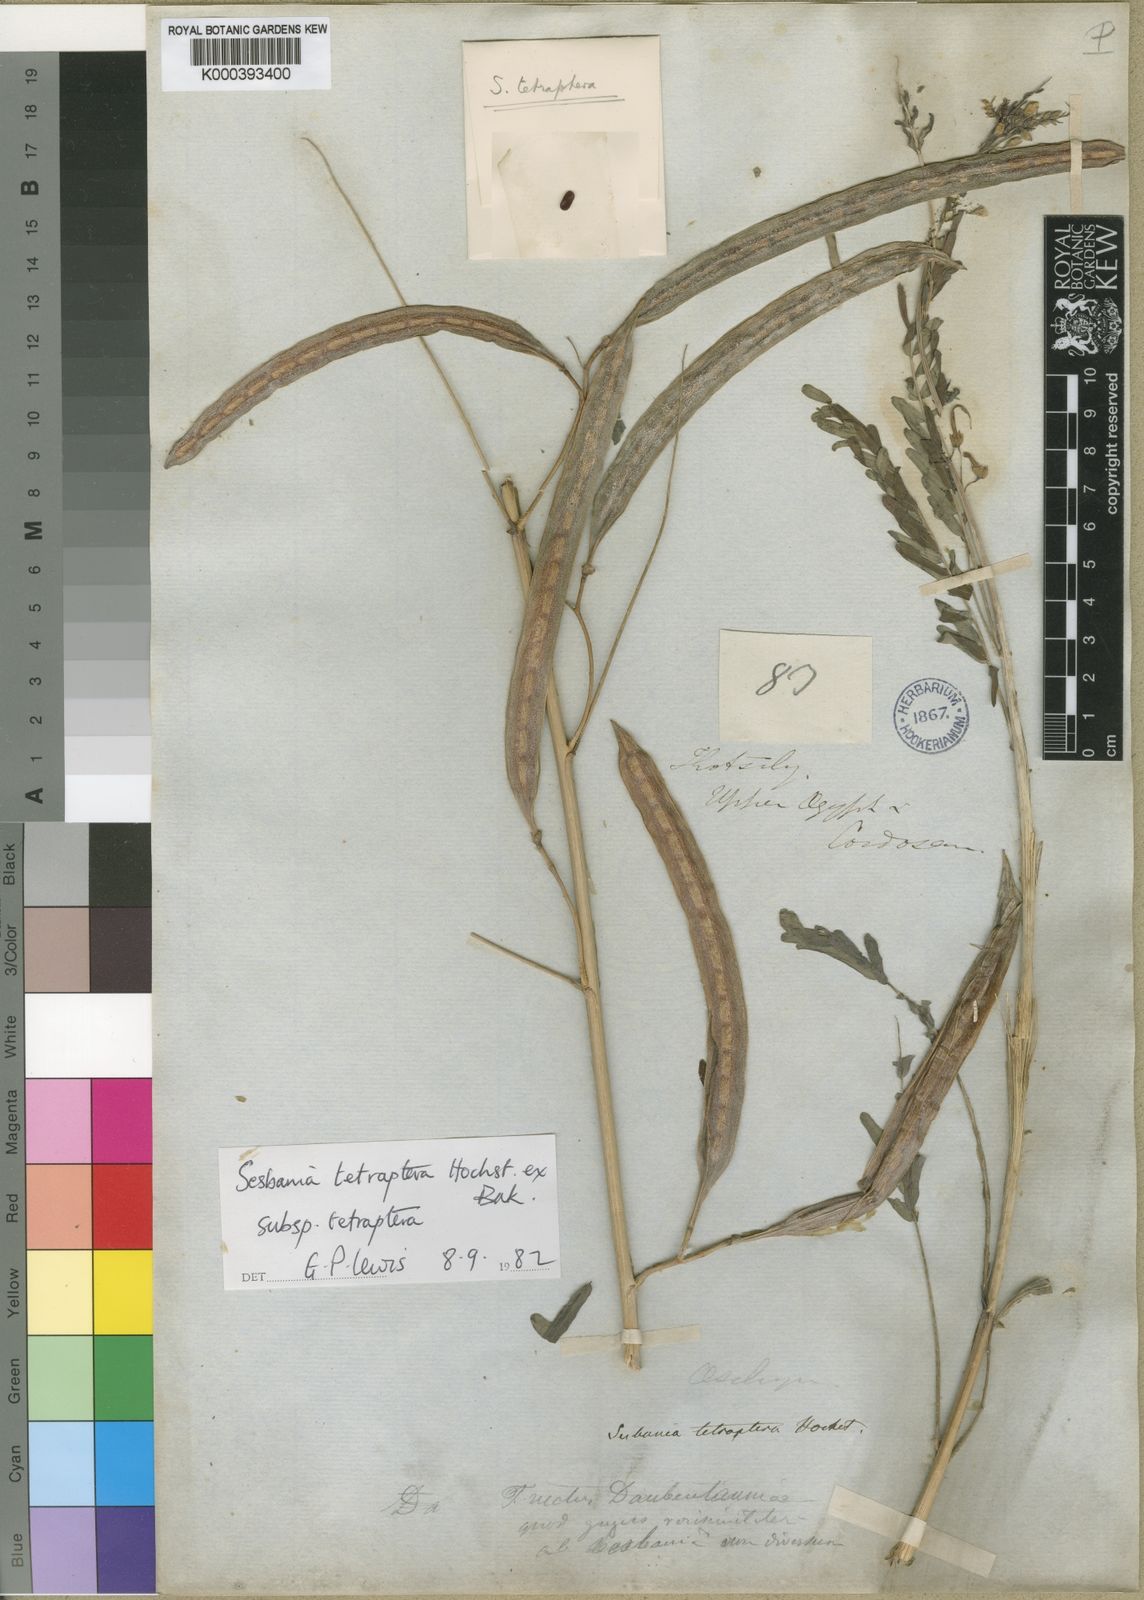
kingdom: Plantae
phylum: Tracheophyta
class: Magnoliopsida
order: Fabales
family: Fabaceae
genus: Sesbania
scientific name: Sesbania tetraptera
